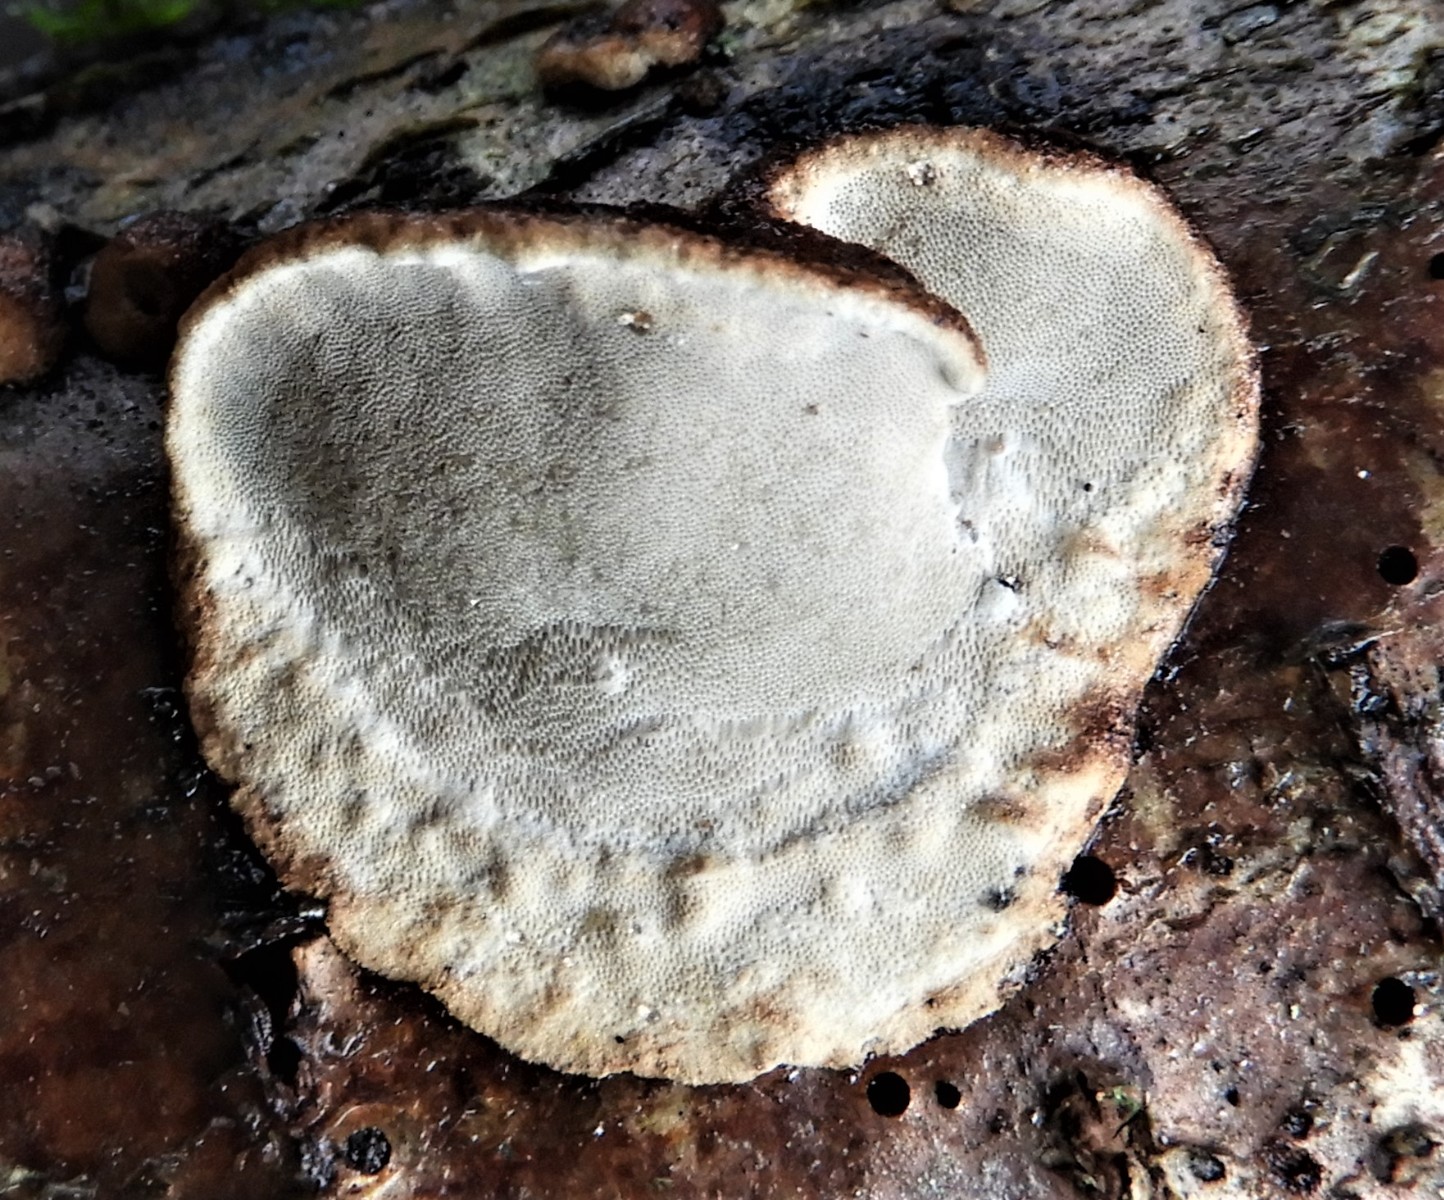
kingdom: Fungi
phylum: Basidiomycota
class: Agaricomycetes
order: Polyporales
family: Incrustoporiaceae
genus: Skeletocutis
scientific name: Skeletocutis nemoralis
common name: stor krystalporesvamp
